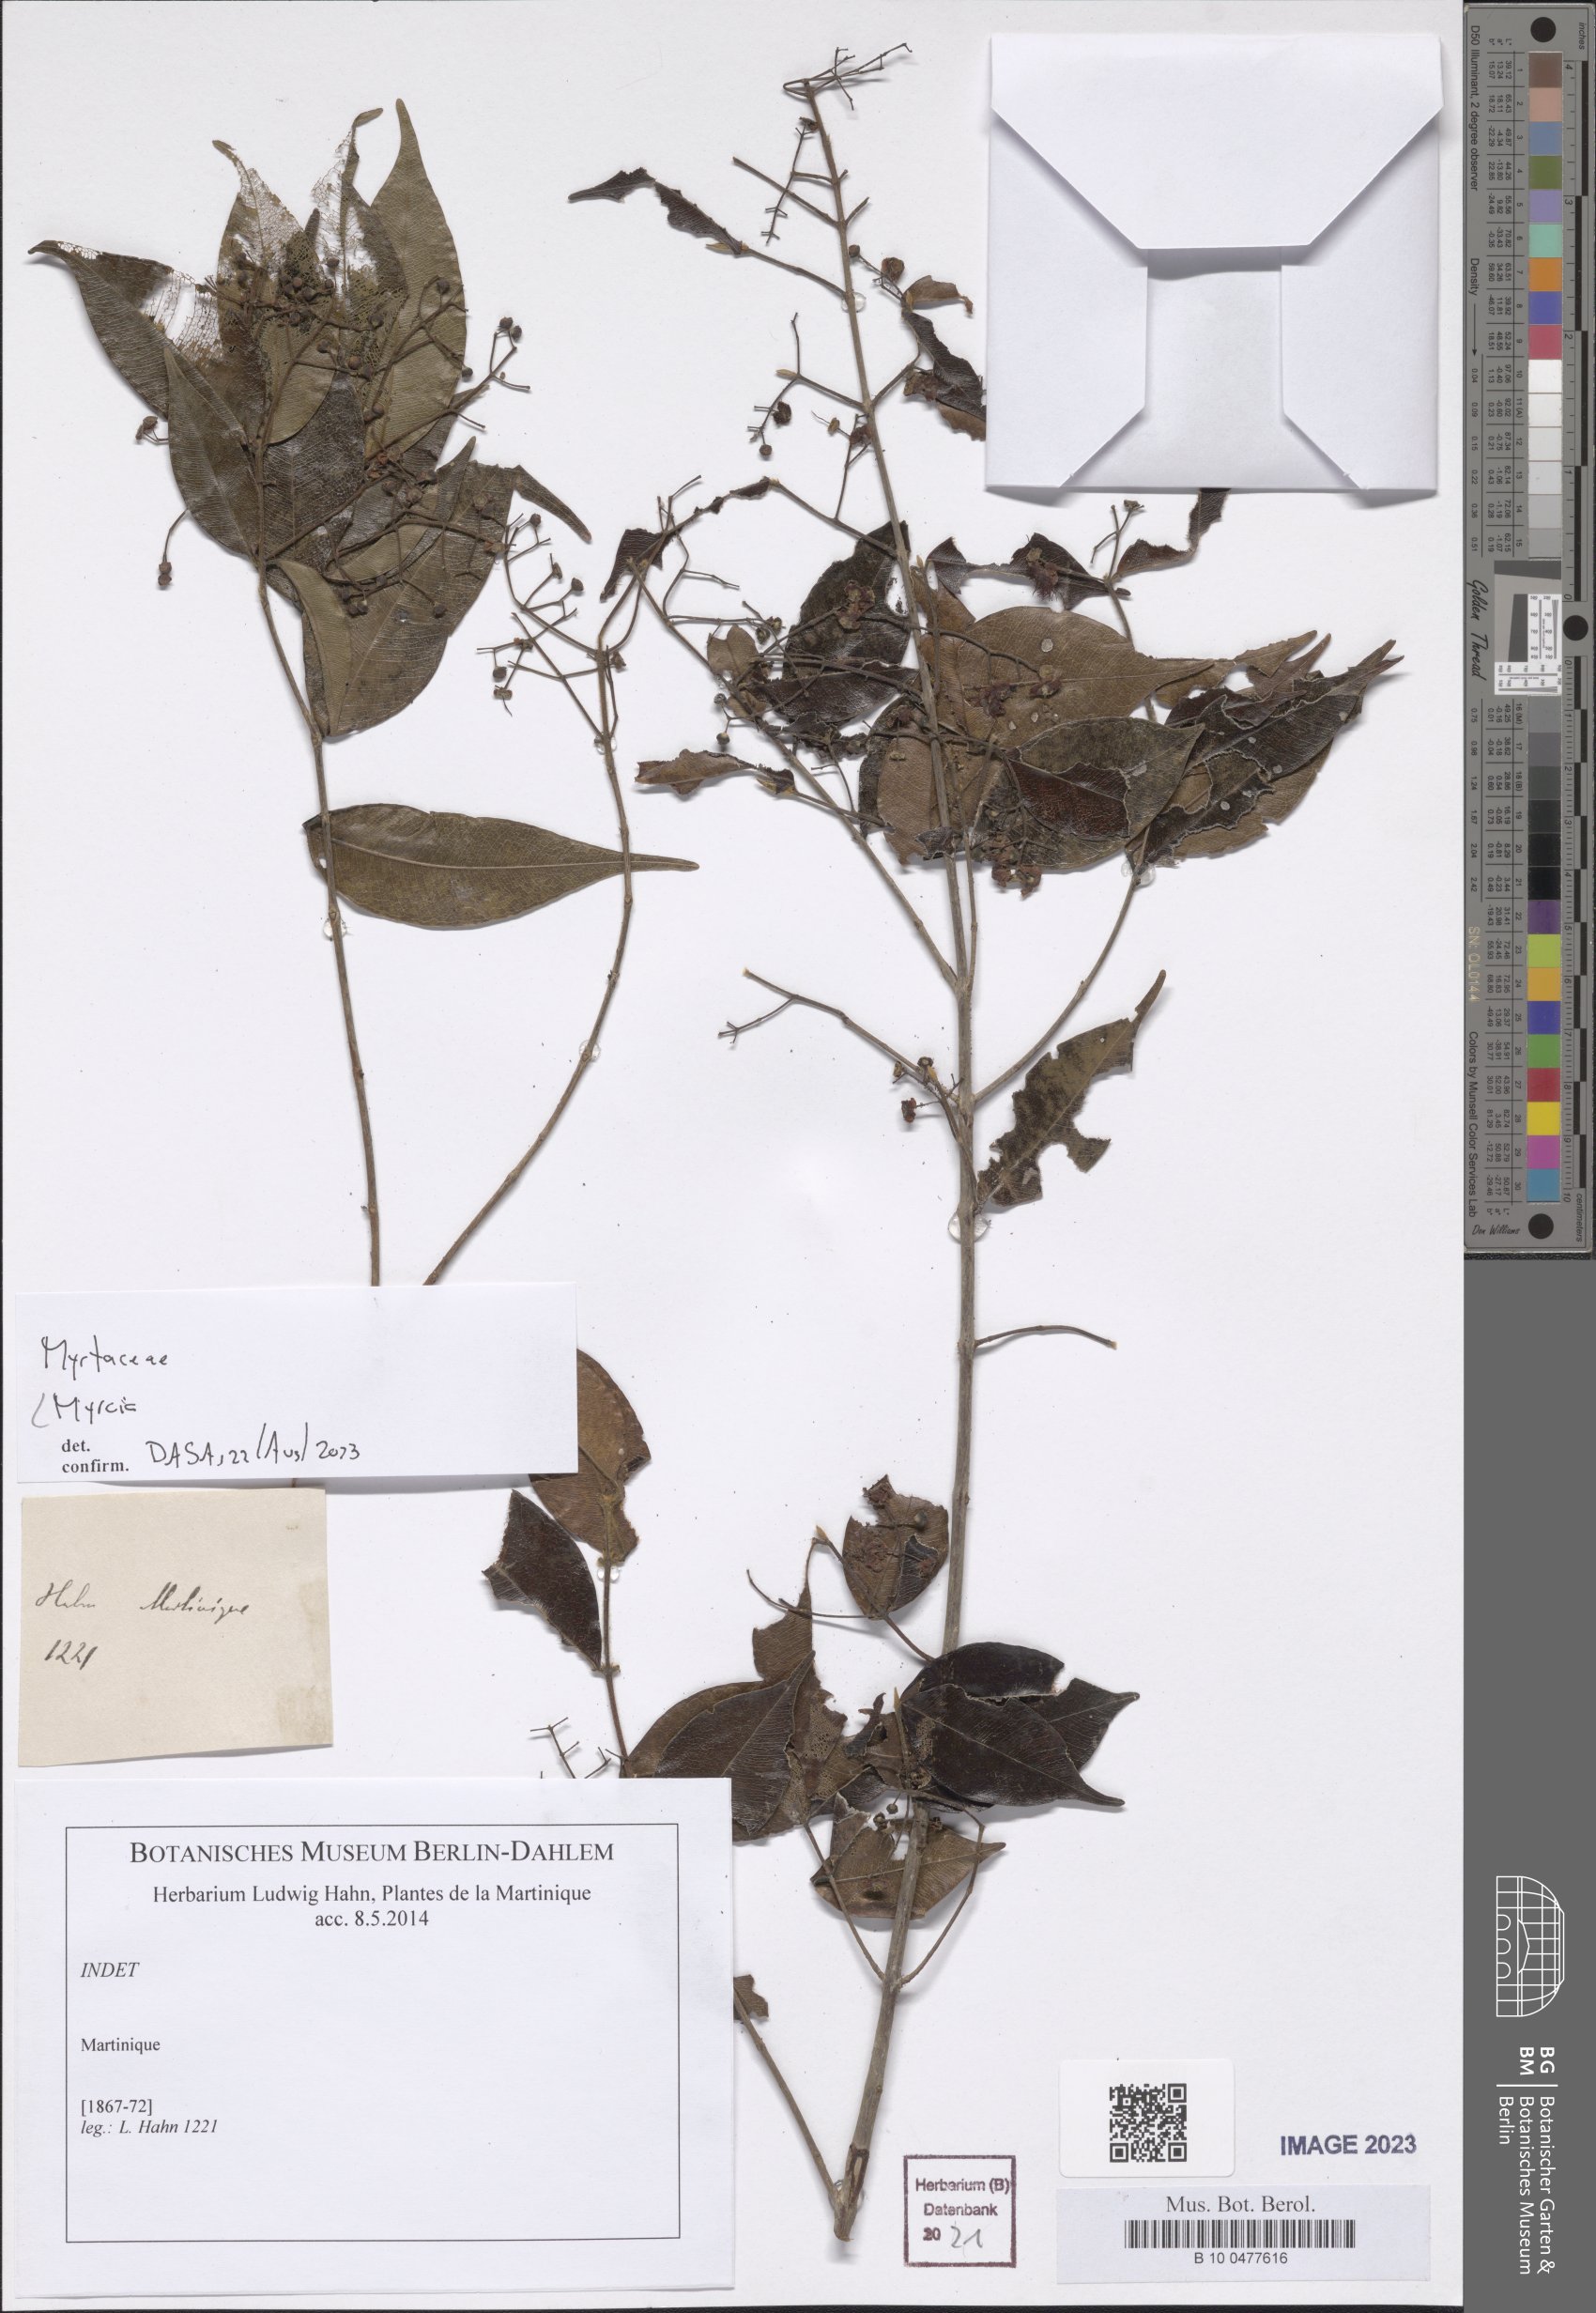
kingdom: Plantae
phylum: Tracheophyta
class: Magnoliopsida
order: Myrtales
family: Myrtaceae
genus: Myrcia
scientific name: Myrcia
